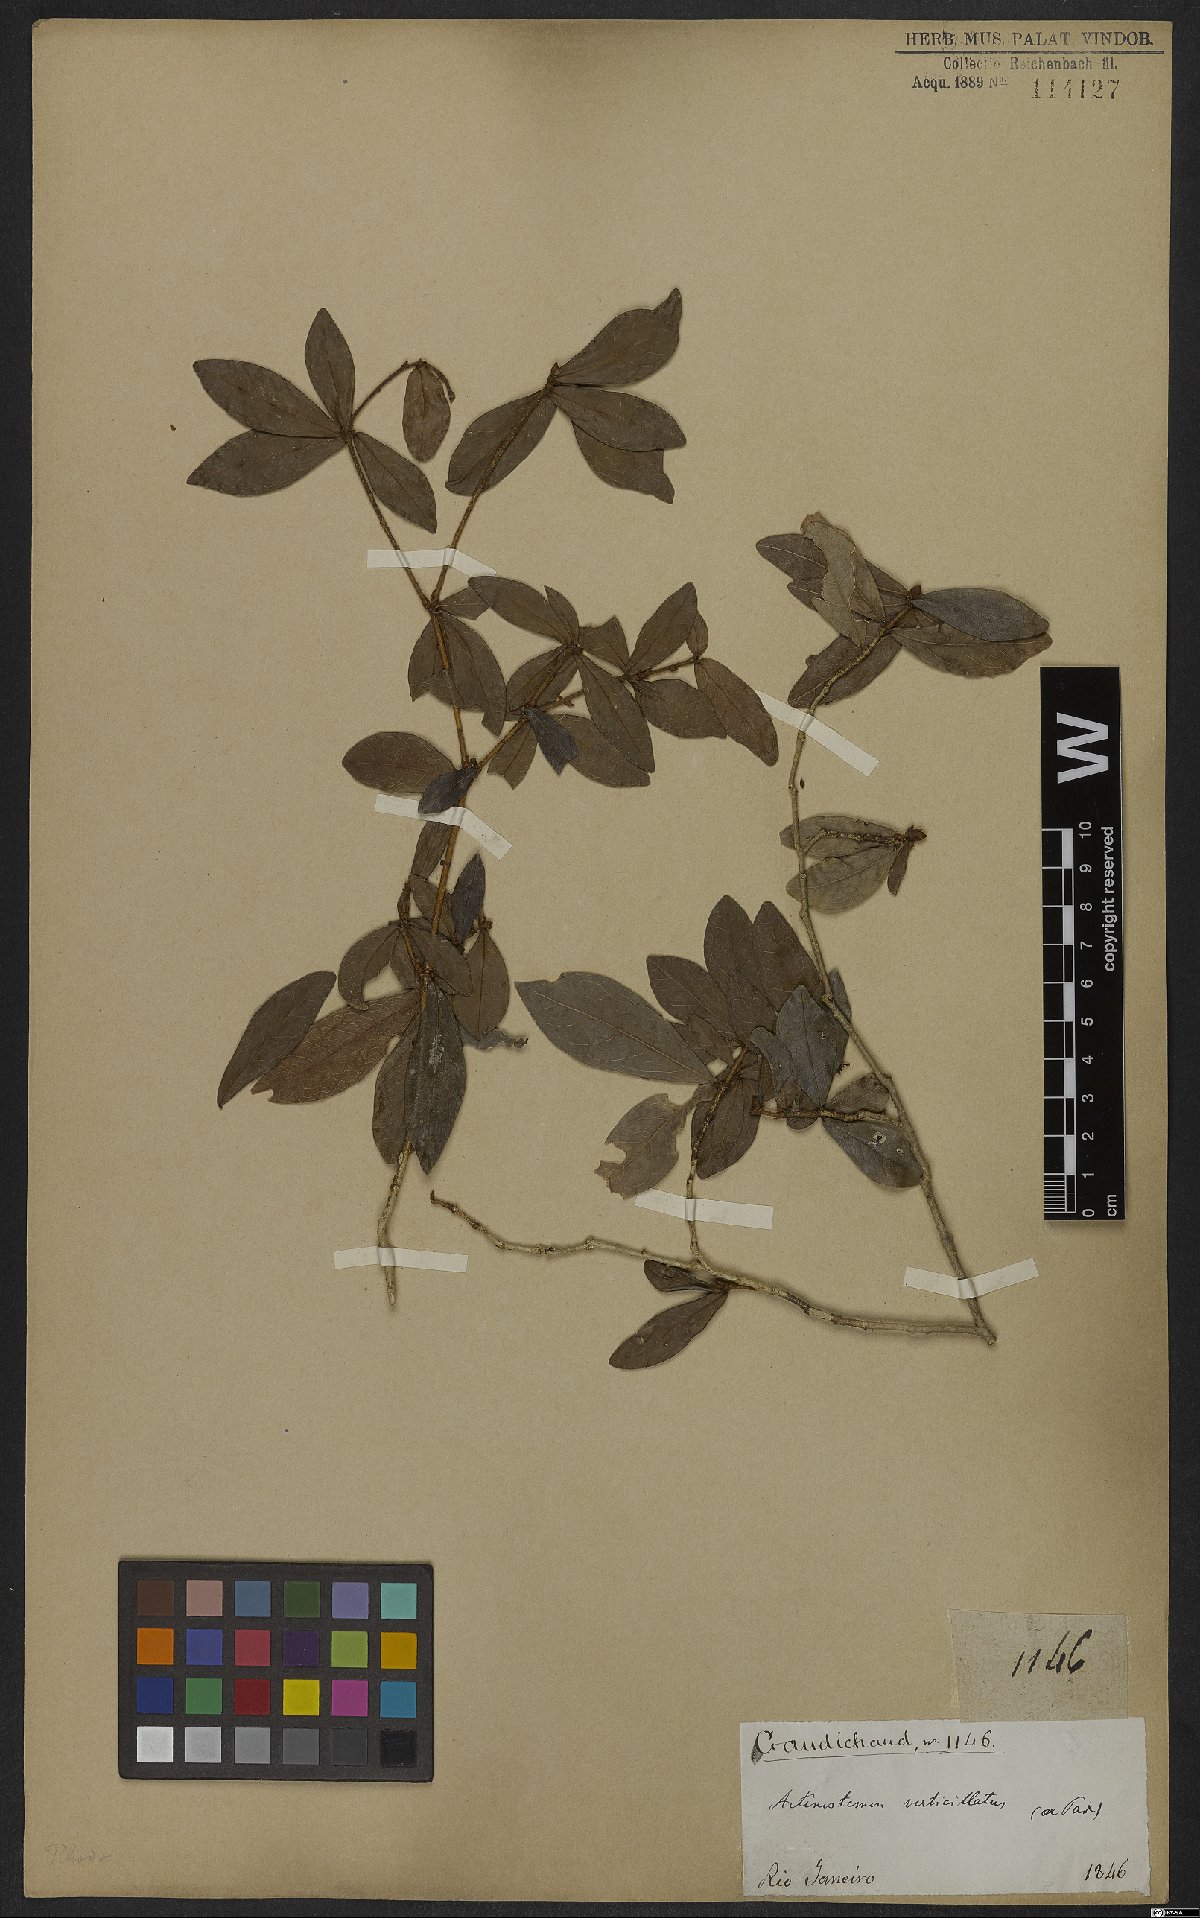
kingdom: Plantae
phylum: Tracheophyta
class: Magnoliopsida
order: Malpighiales
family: Euphorbiaceae
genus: Actinostemon
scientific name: Actinostemon verticillatus
